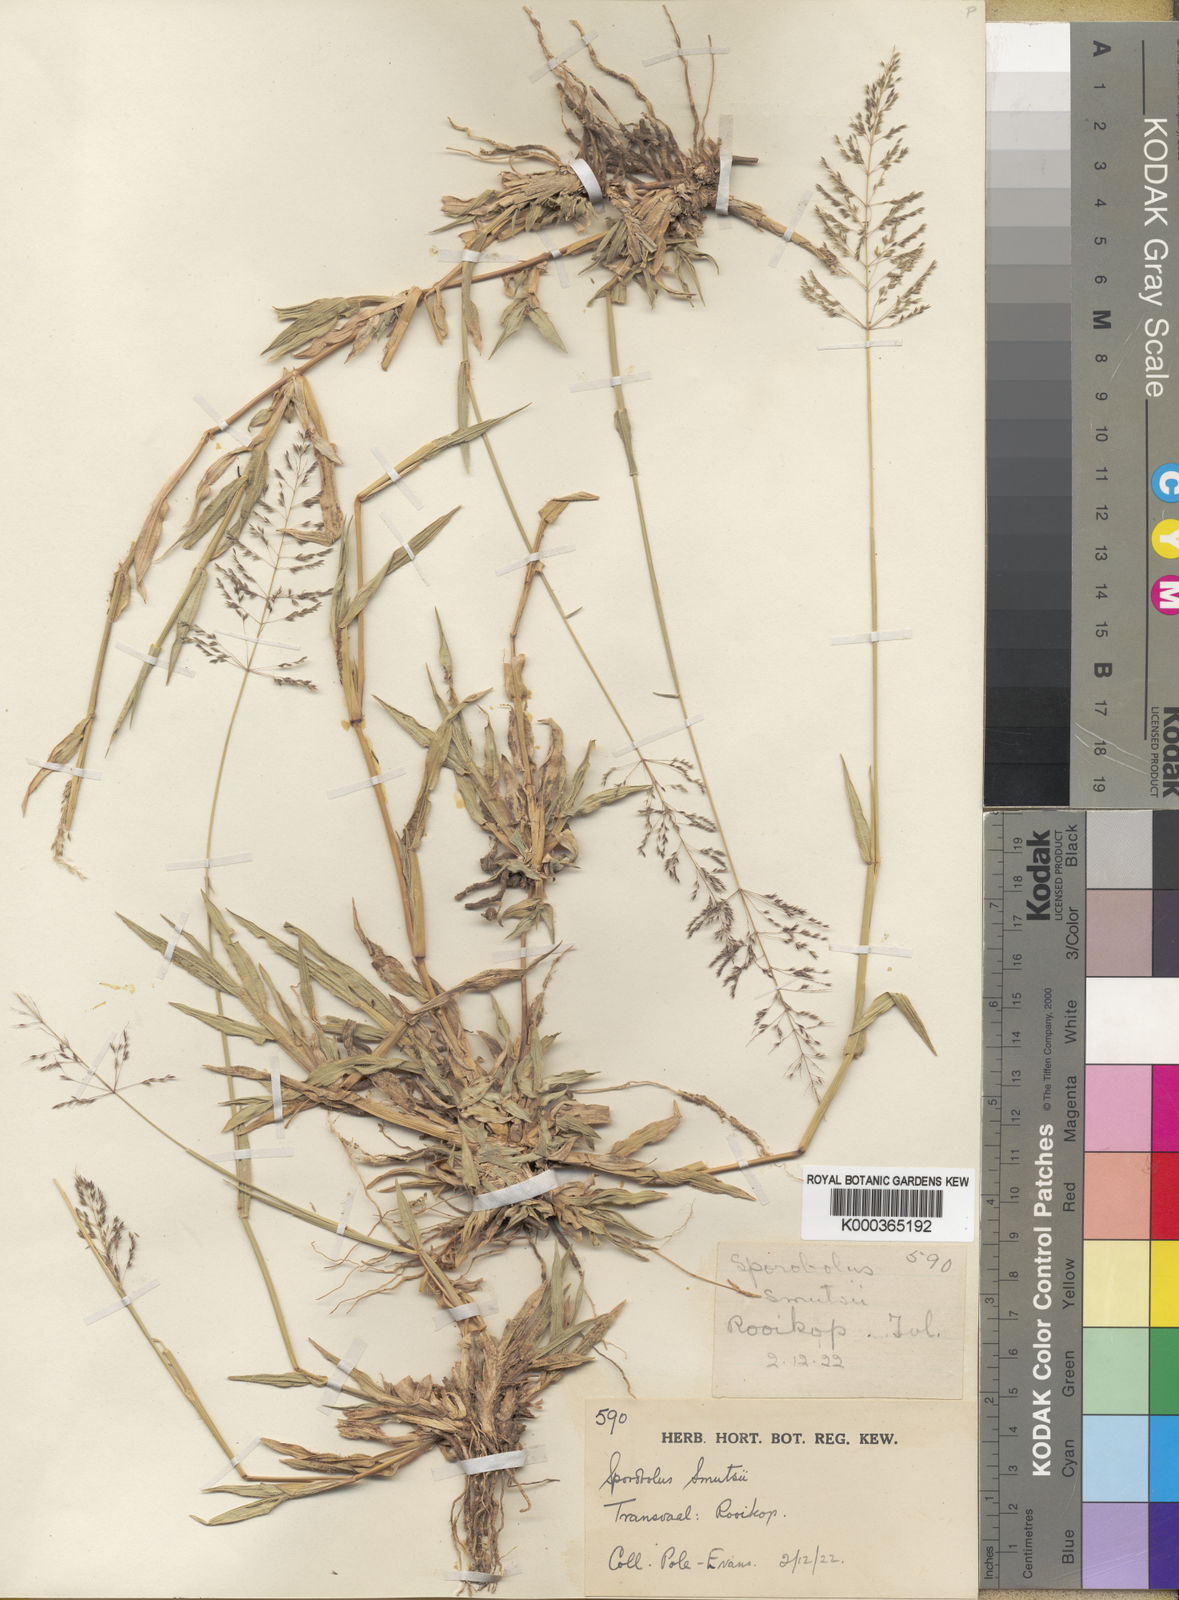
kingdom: Plantae
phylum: Tracheophyta
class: Liliopsida
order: Poales
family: Poaceae
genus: Sporobolus
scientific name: Sporobolus ioclados
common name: Pan dropseed
